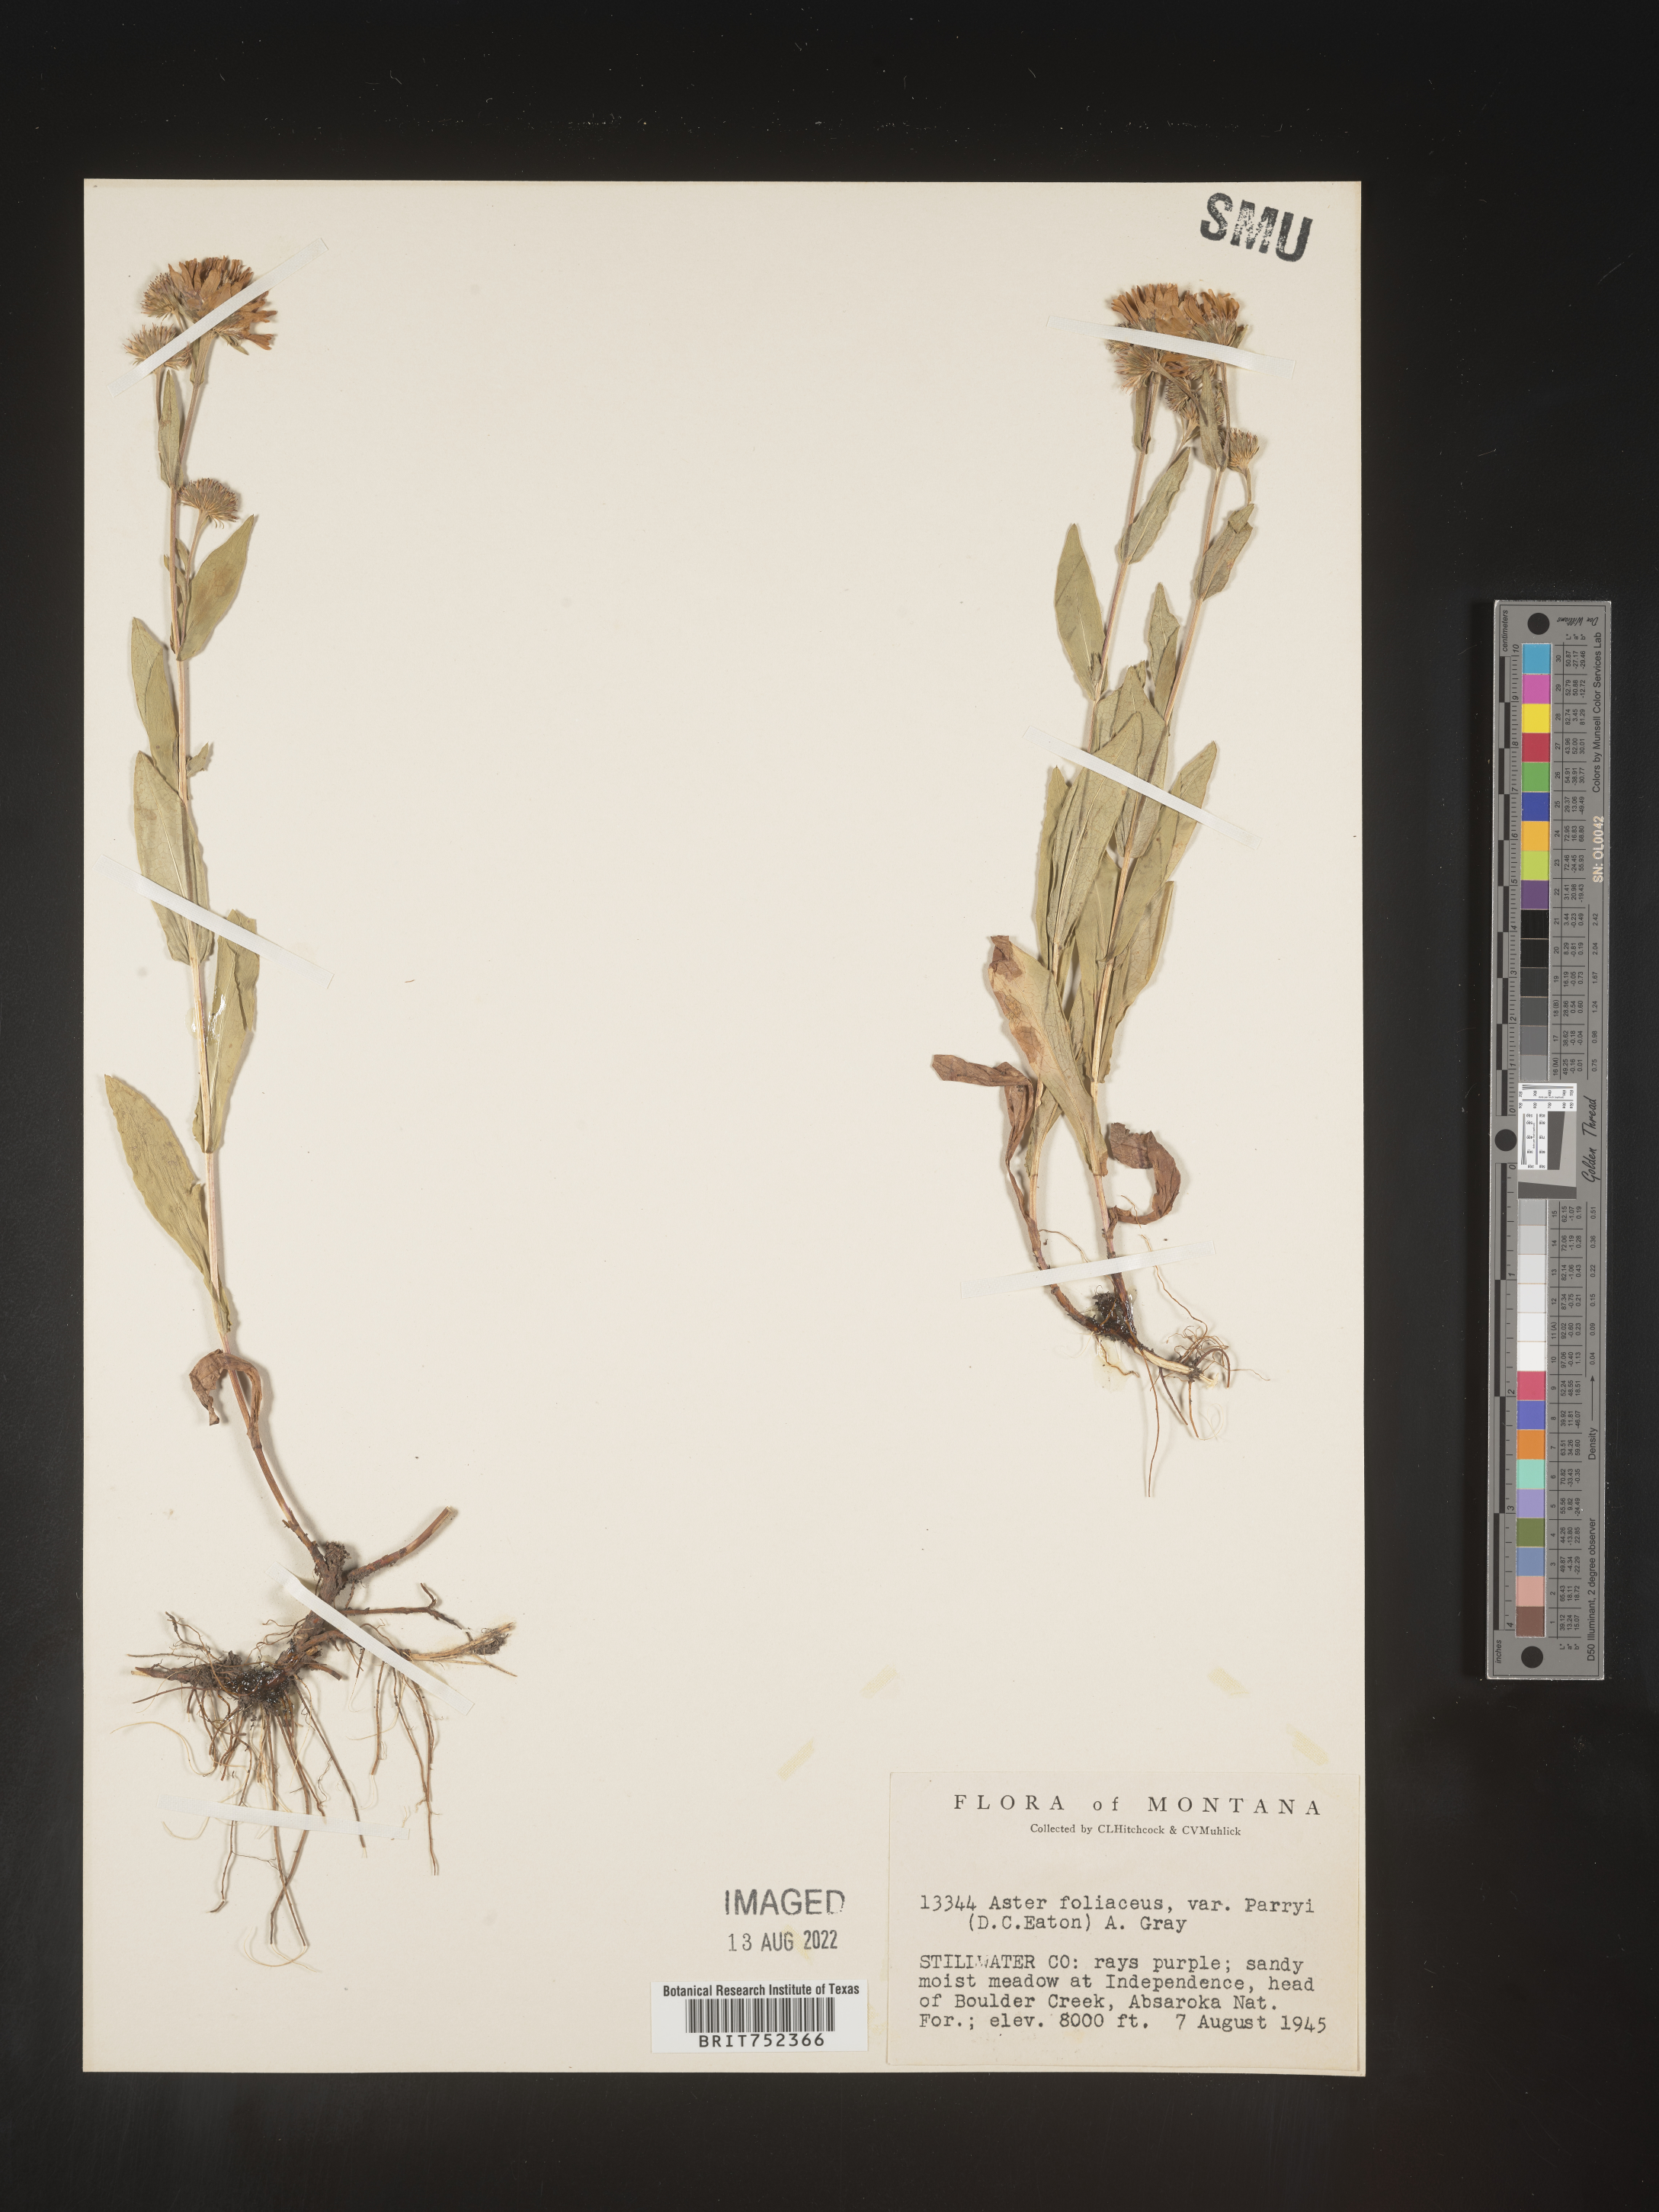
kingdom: Plantae
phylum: Tracheophyta
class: Magnoliopsida
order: Asterales
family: Asteraceae
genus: Symphyotrichum
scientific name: Symphyotrichum foliaceum
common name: Leafy aster
